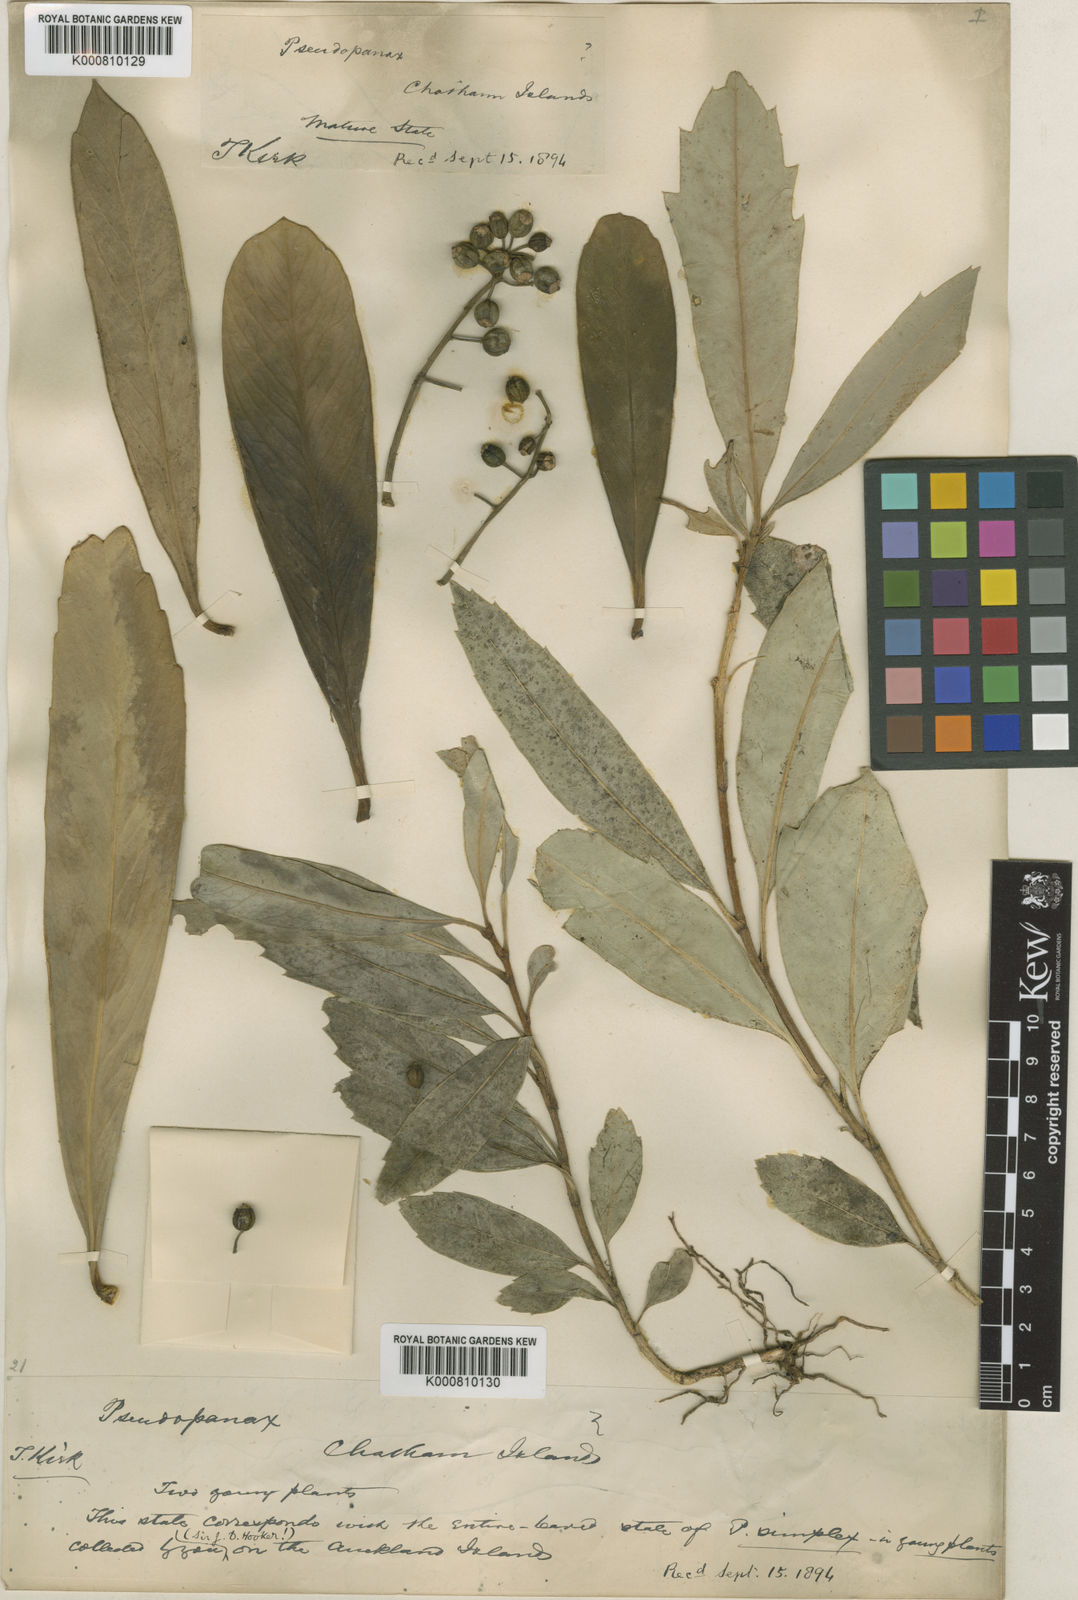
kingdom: Plantae
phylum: Tracheophyta
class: Magnoliopsida
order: Apiales
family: Araliaceae
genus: Pseudopanax
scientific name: Pseudopanax chathamicus
